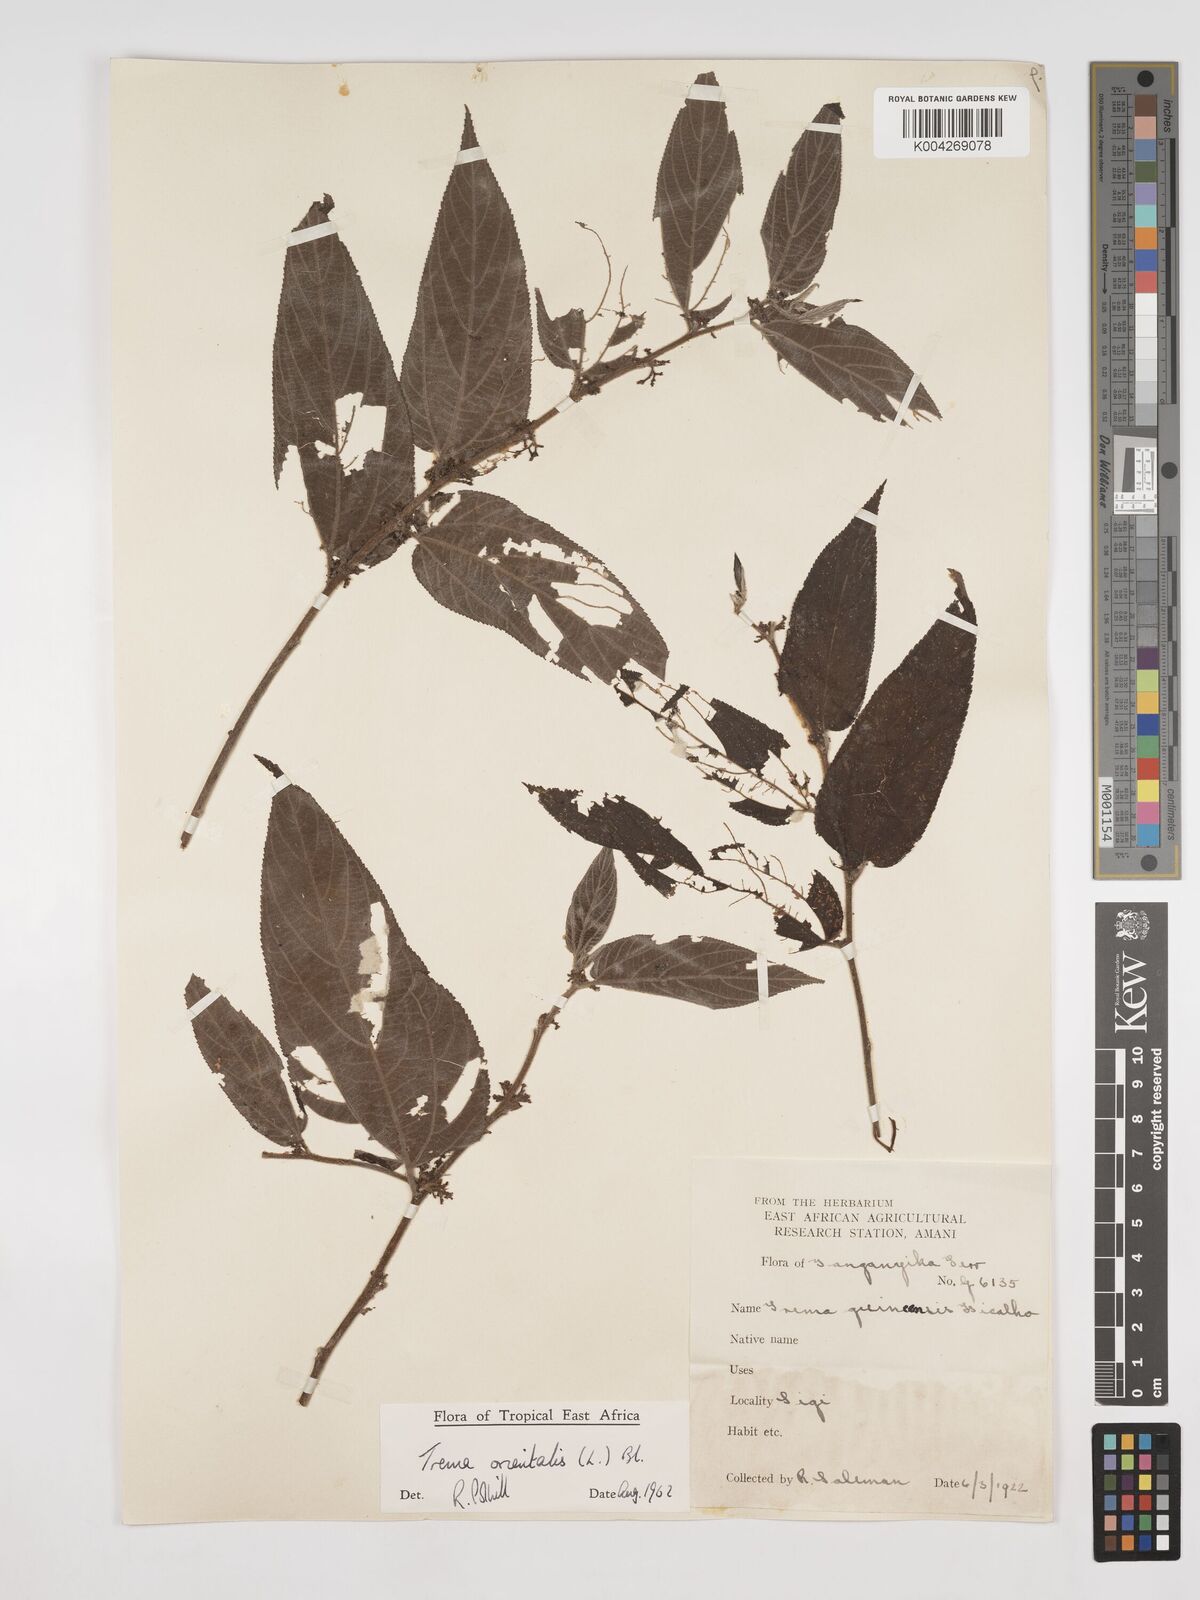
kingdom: Plantae
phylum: Tracheophyta
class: Magnoliopsida
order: Rosales
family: Cannabaceae
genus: Trema
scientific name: Trema orientale
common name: Indian charcoal tree
